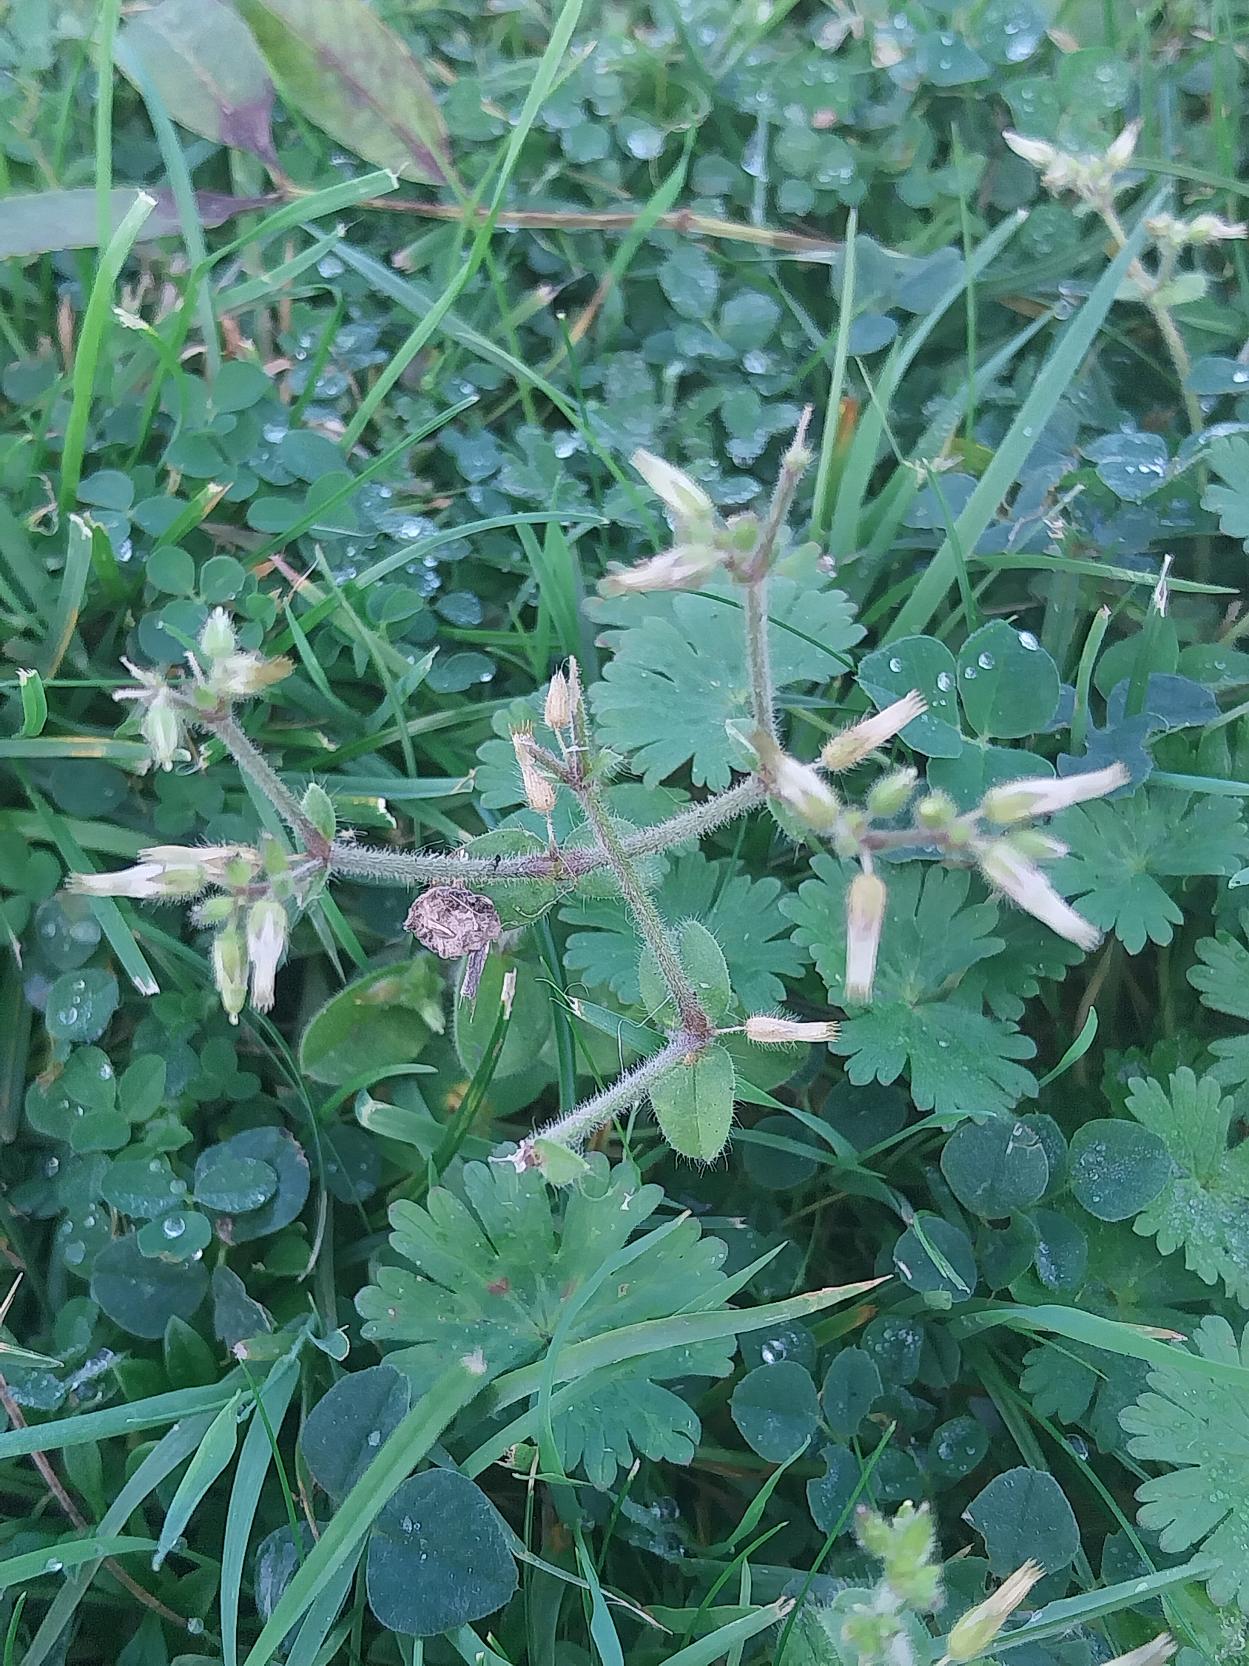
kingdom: Plantae
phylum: Tracheophyta
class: Magnoliopsida
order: Caryophyllales
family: Caryophyllaceae
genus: Cerastium
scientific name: Cerastium glomeratum
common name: Opret hønsetarm
